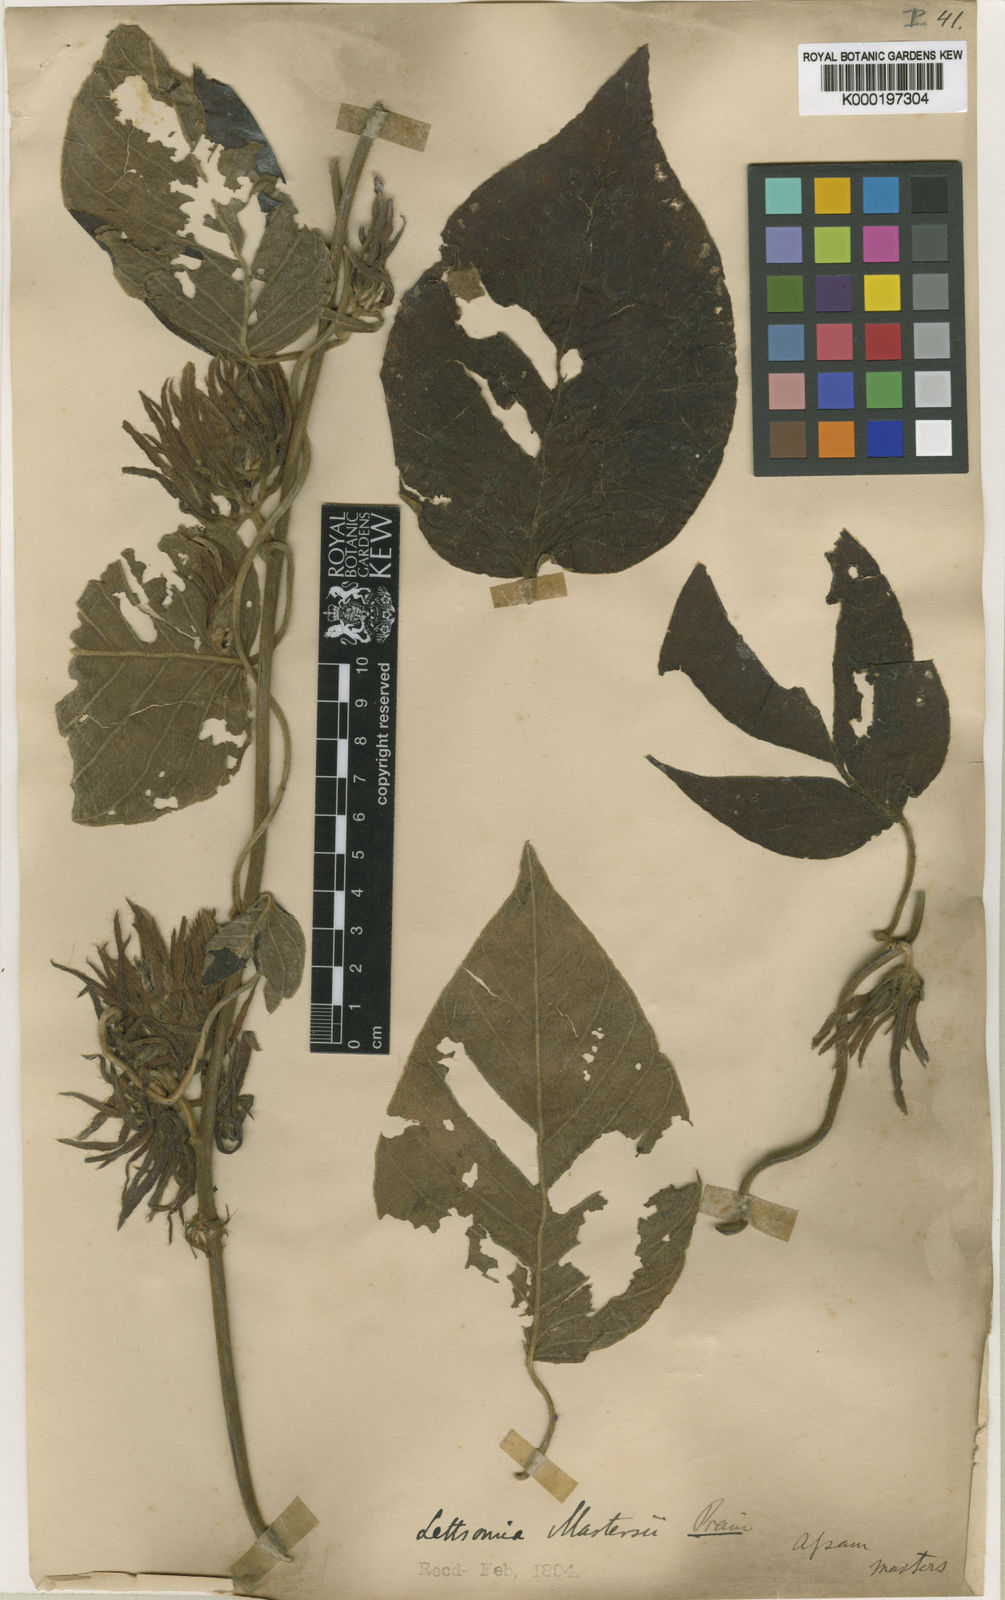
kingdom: Plantae
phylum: Tracheophyta
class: Magnoliopsida
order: Solanales
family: Convolvulaceae
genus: Argyreia
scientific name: Argyreia mastersii
